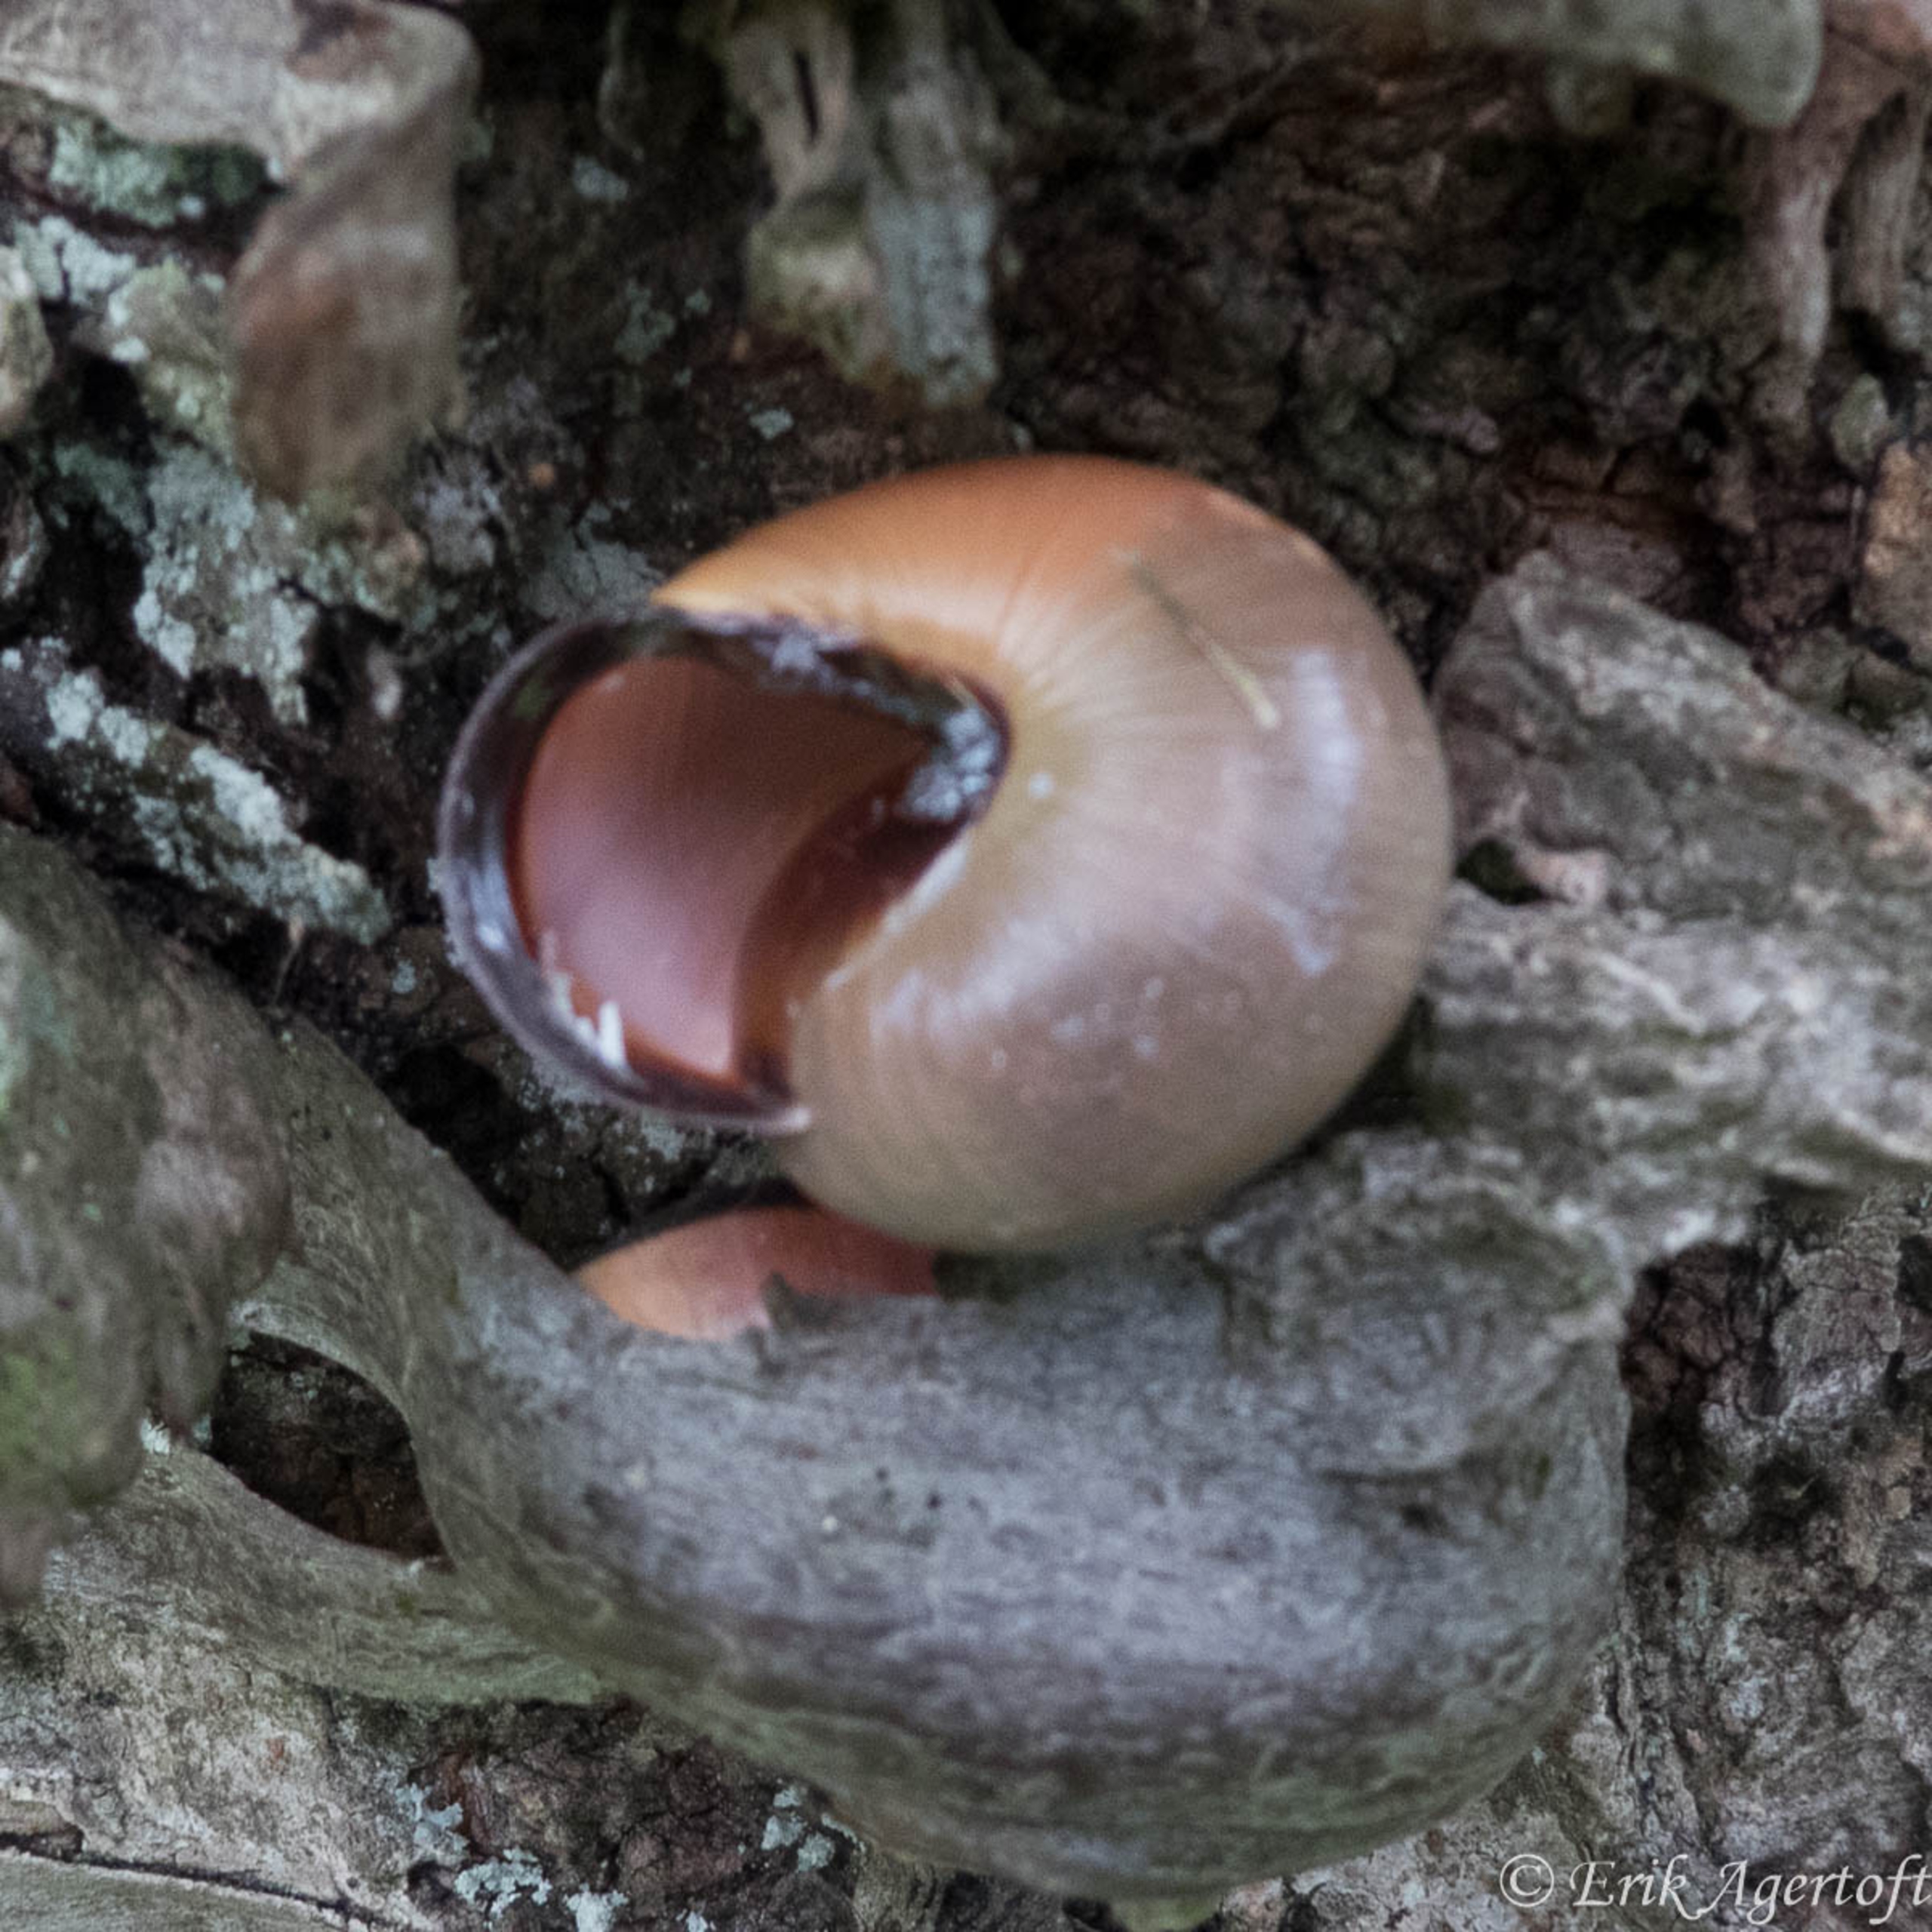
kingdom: Animalia
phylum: Mollusca
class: Gastropoda
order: Stylommatophora
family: Helicidae
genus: Cepaea
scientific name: Cepaea nemoralis
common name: Lundsnegl
